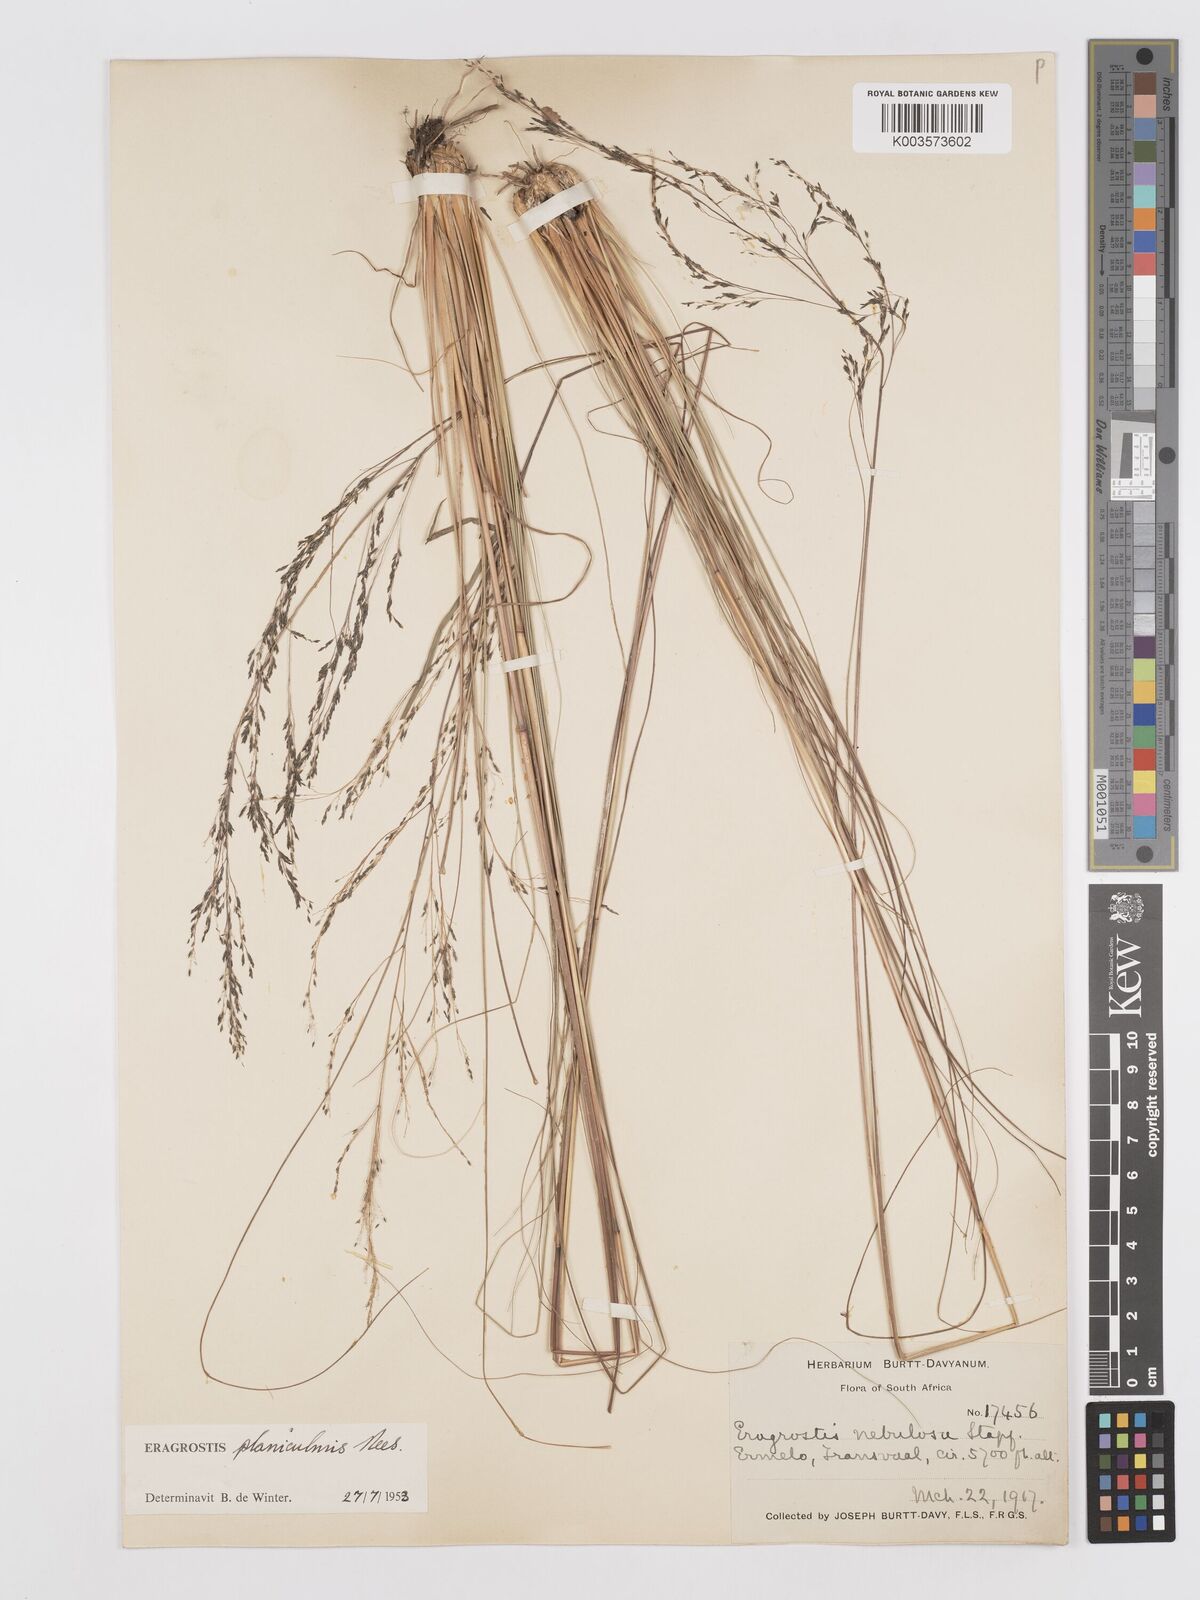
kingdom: Plantae
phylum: Tracheophyta
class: Liliopsida
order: Poales
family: Poaceae
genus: Eragrostis
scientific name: Eragrostis planiculmis
